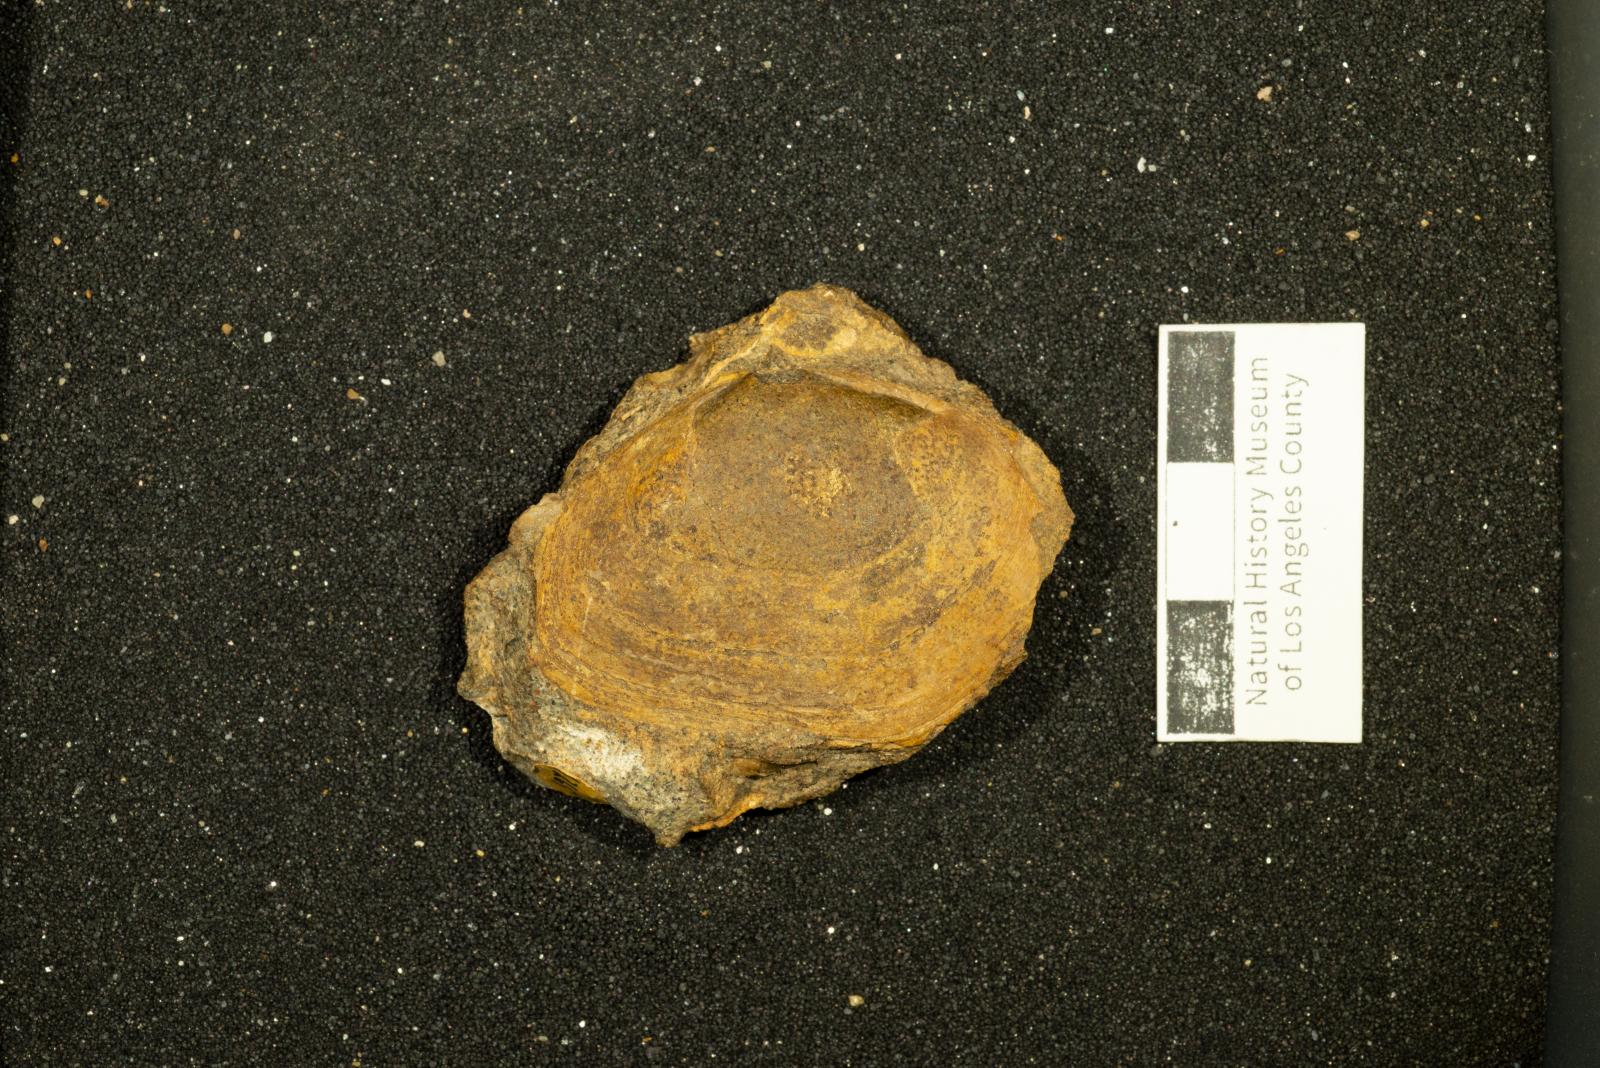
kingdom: Animalia
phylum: Mollusca
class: Bivalvia
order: Venerida
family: Mactridae
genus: Pteroluter
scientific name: Pteroluter othnius
